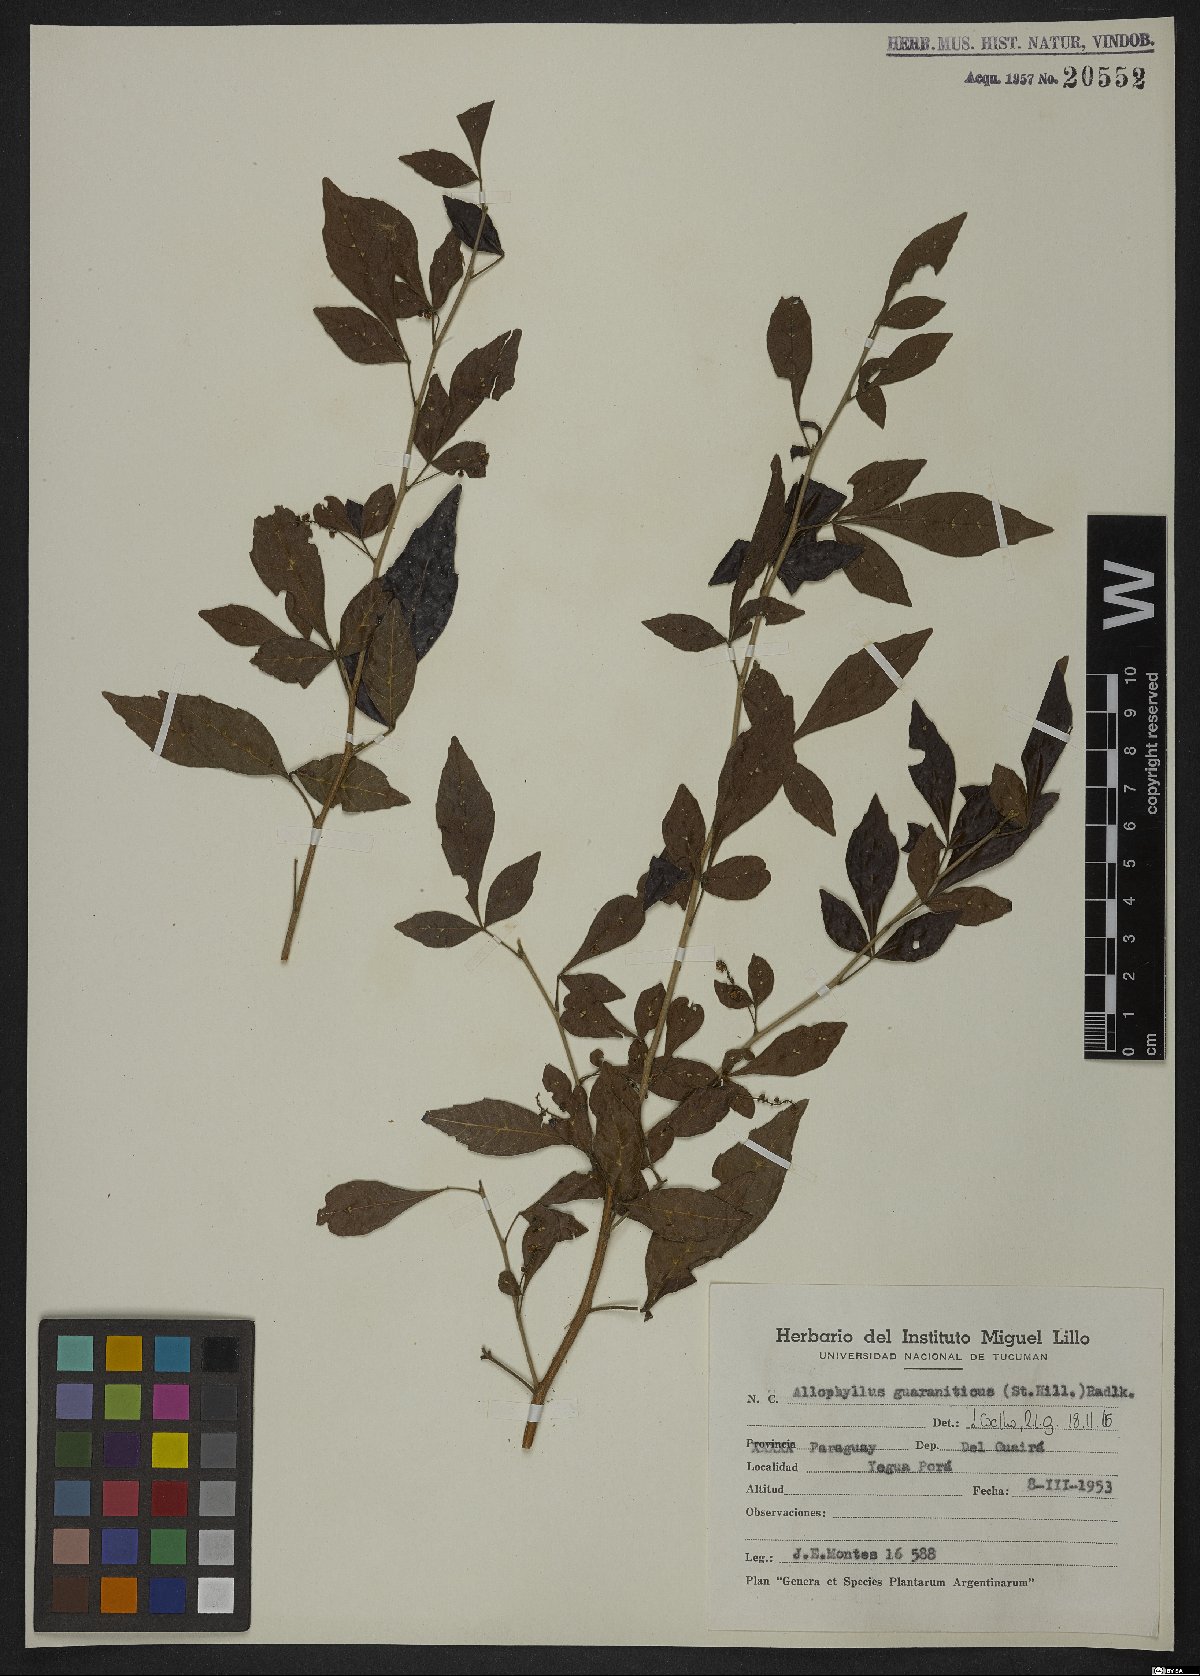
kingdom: Plantae
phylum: Tracheophyta
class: Magnoliopsida
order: Sapindales
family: Sapindaceae
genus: Allophylus
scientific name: Allophylus guaraniticus
